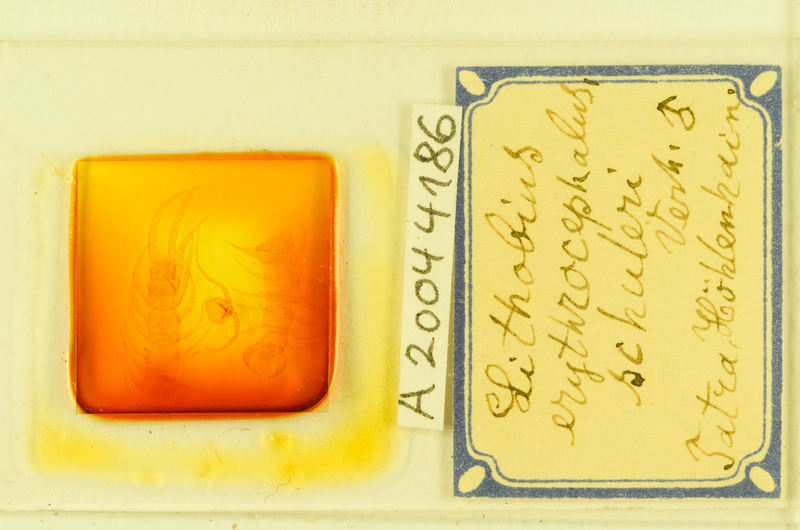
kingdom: Animalia
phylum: Arthropoda
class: Chilopoda
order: Lithobiomorpha
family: Lithobiidae
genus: Lithobius
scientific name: Lithobius erythrocephalus
